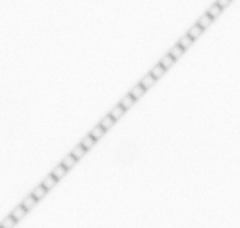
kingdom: Chromista
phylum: Ochrophyta
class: Bacillariophyceae
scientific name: Bacillariophyceae
